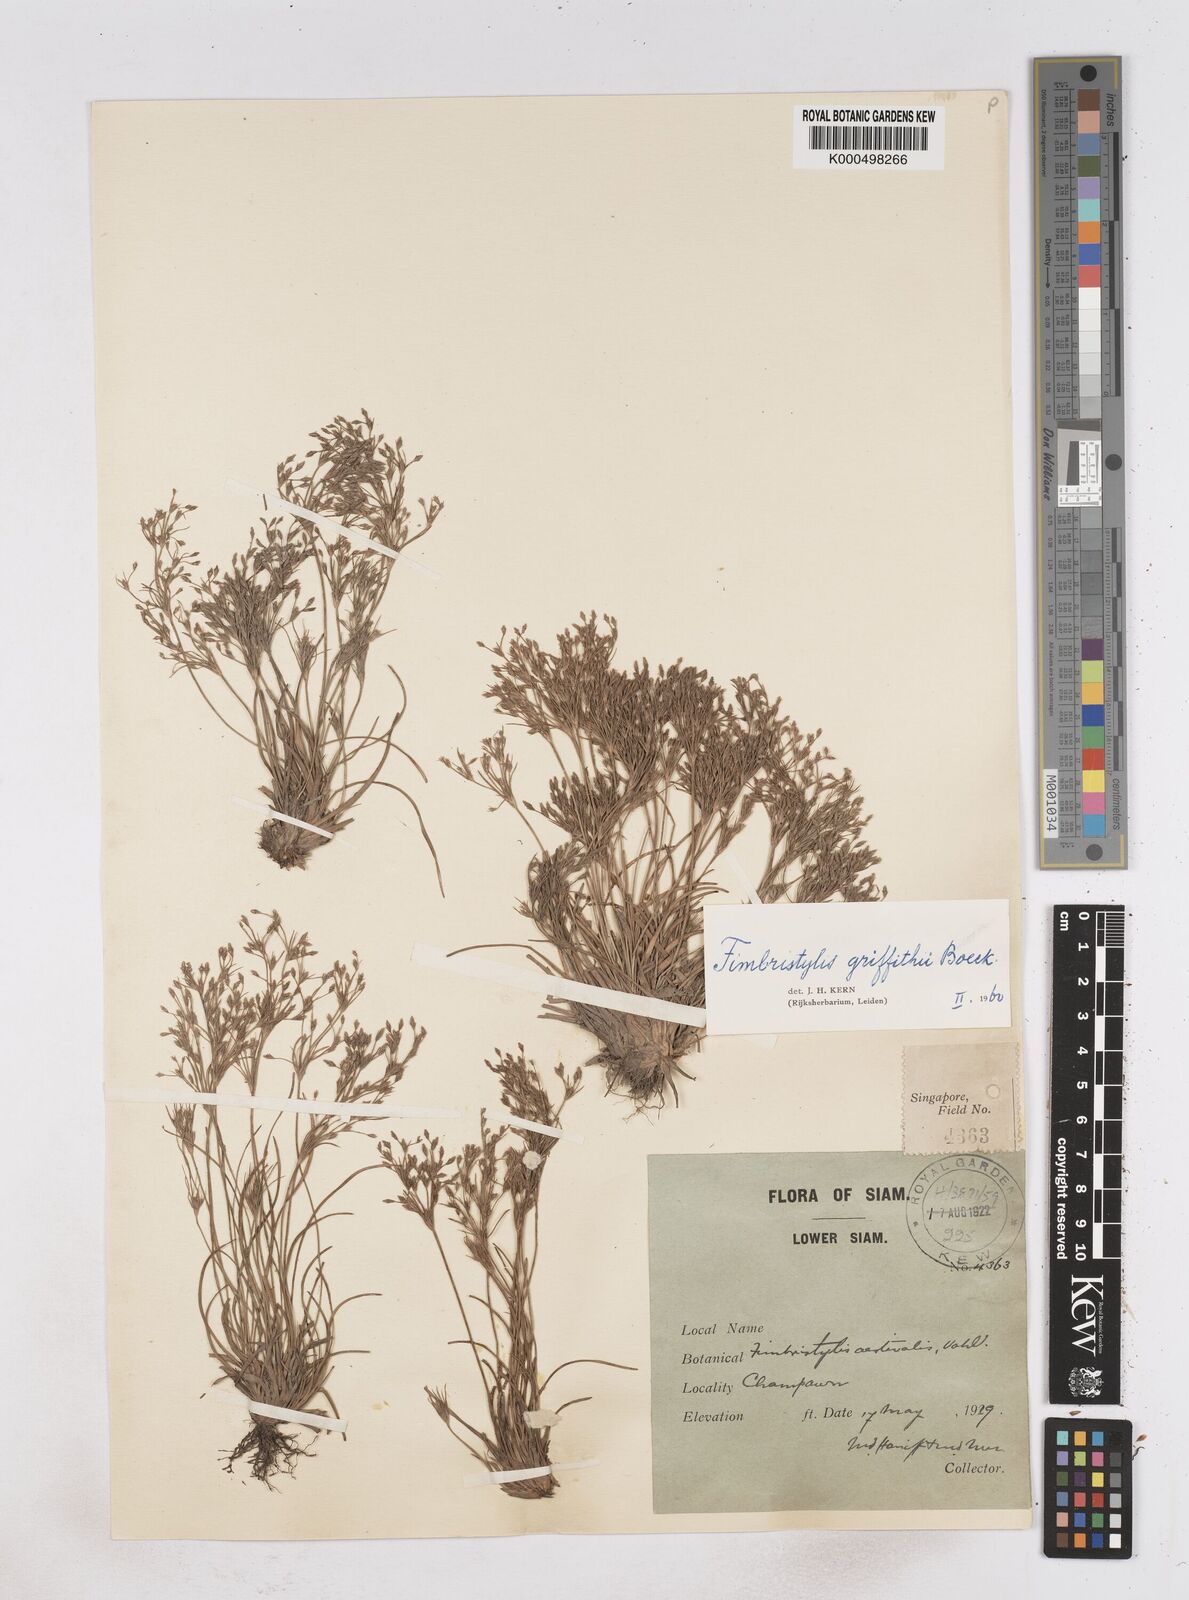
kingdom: Plantae
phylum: Tracheophyta
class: Liliopsida
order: Poales
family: Cyperaceae
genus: Fimbristylis
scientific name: Fimbristylis griffithii
